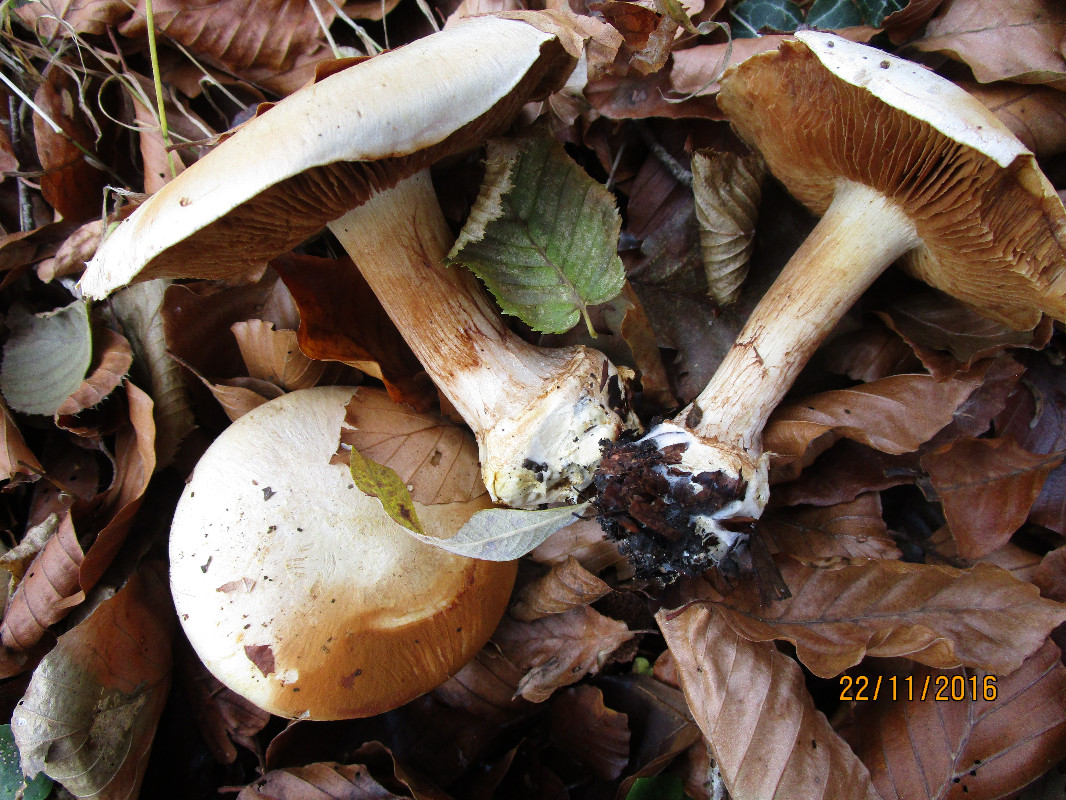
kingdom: Fungi
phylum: Basidiomycota
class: Agaricomycetes
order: Agaricales
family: Cortinariaceae
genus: Calonarius
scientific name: Calonarius humolens
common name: radise-slørhat
